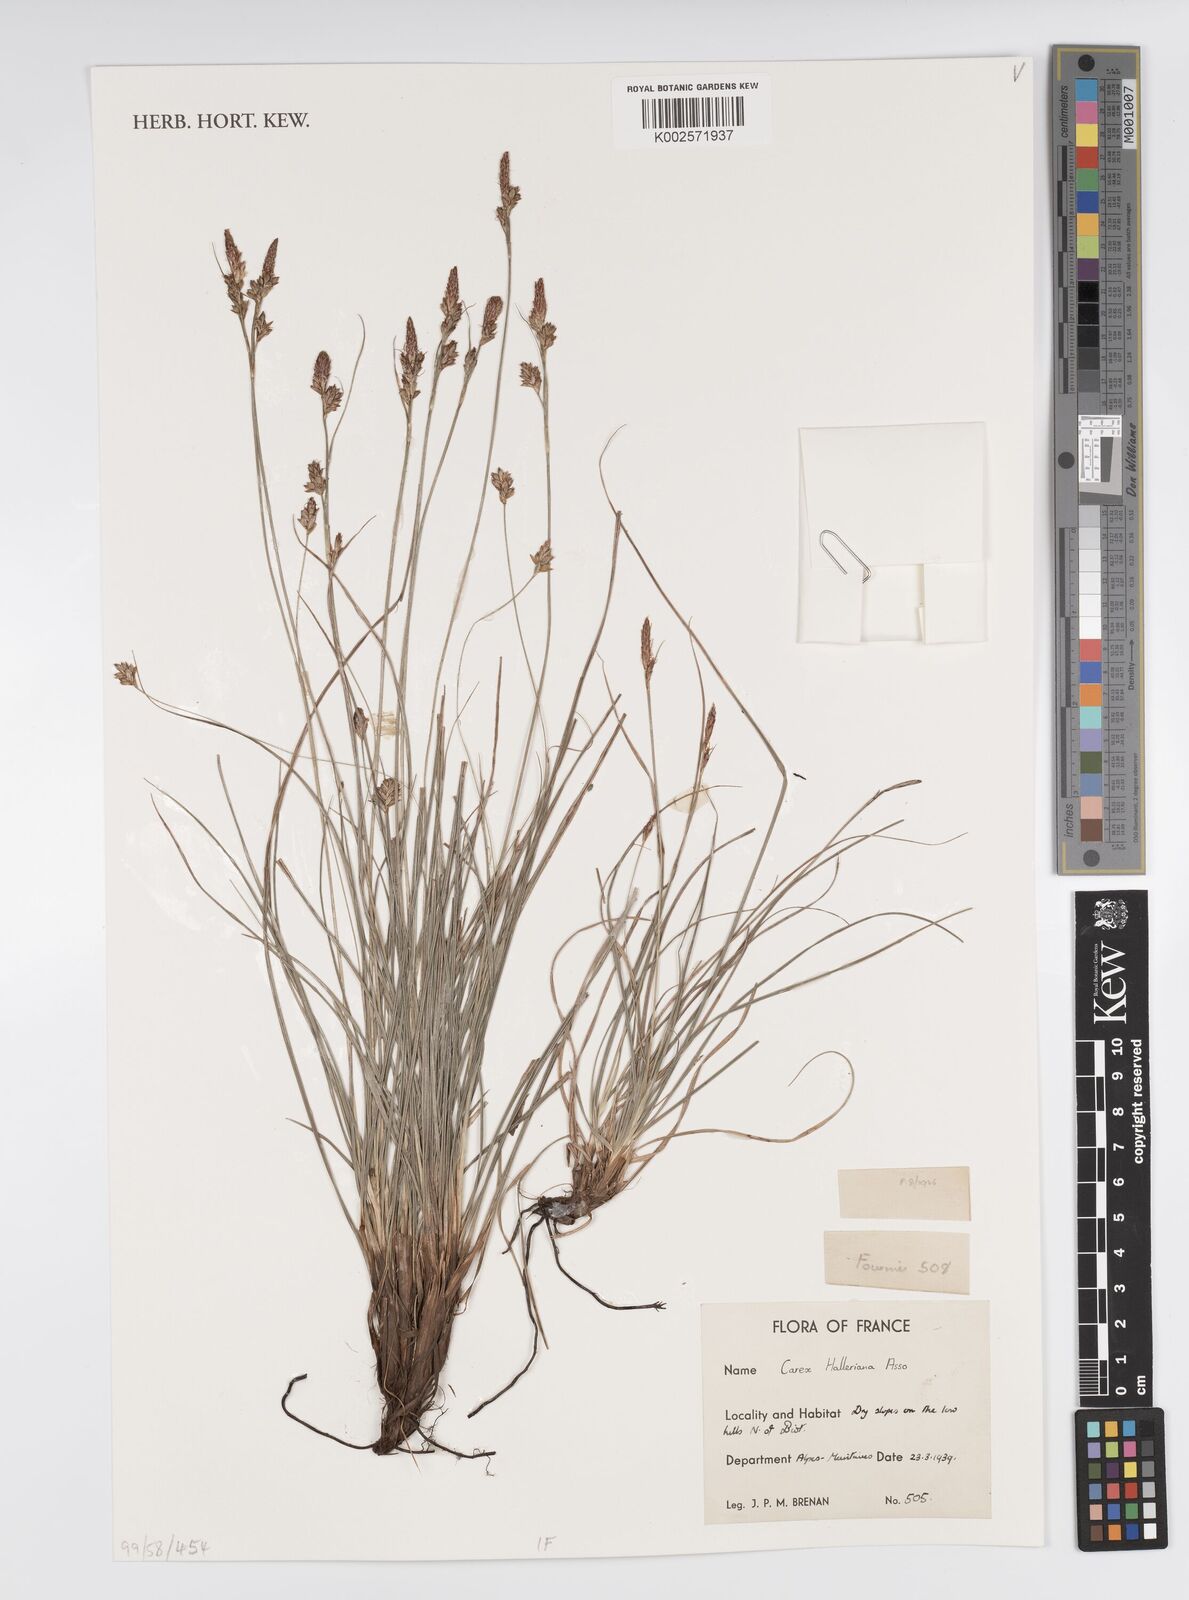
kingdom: Plantae
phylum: Tracheophyta
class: Liliopsida
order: Poales
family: Cyperaceae
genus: Carex
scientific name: Carex halleriana
